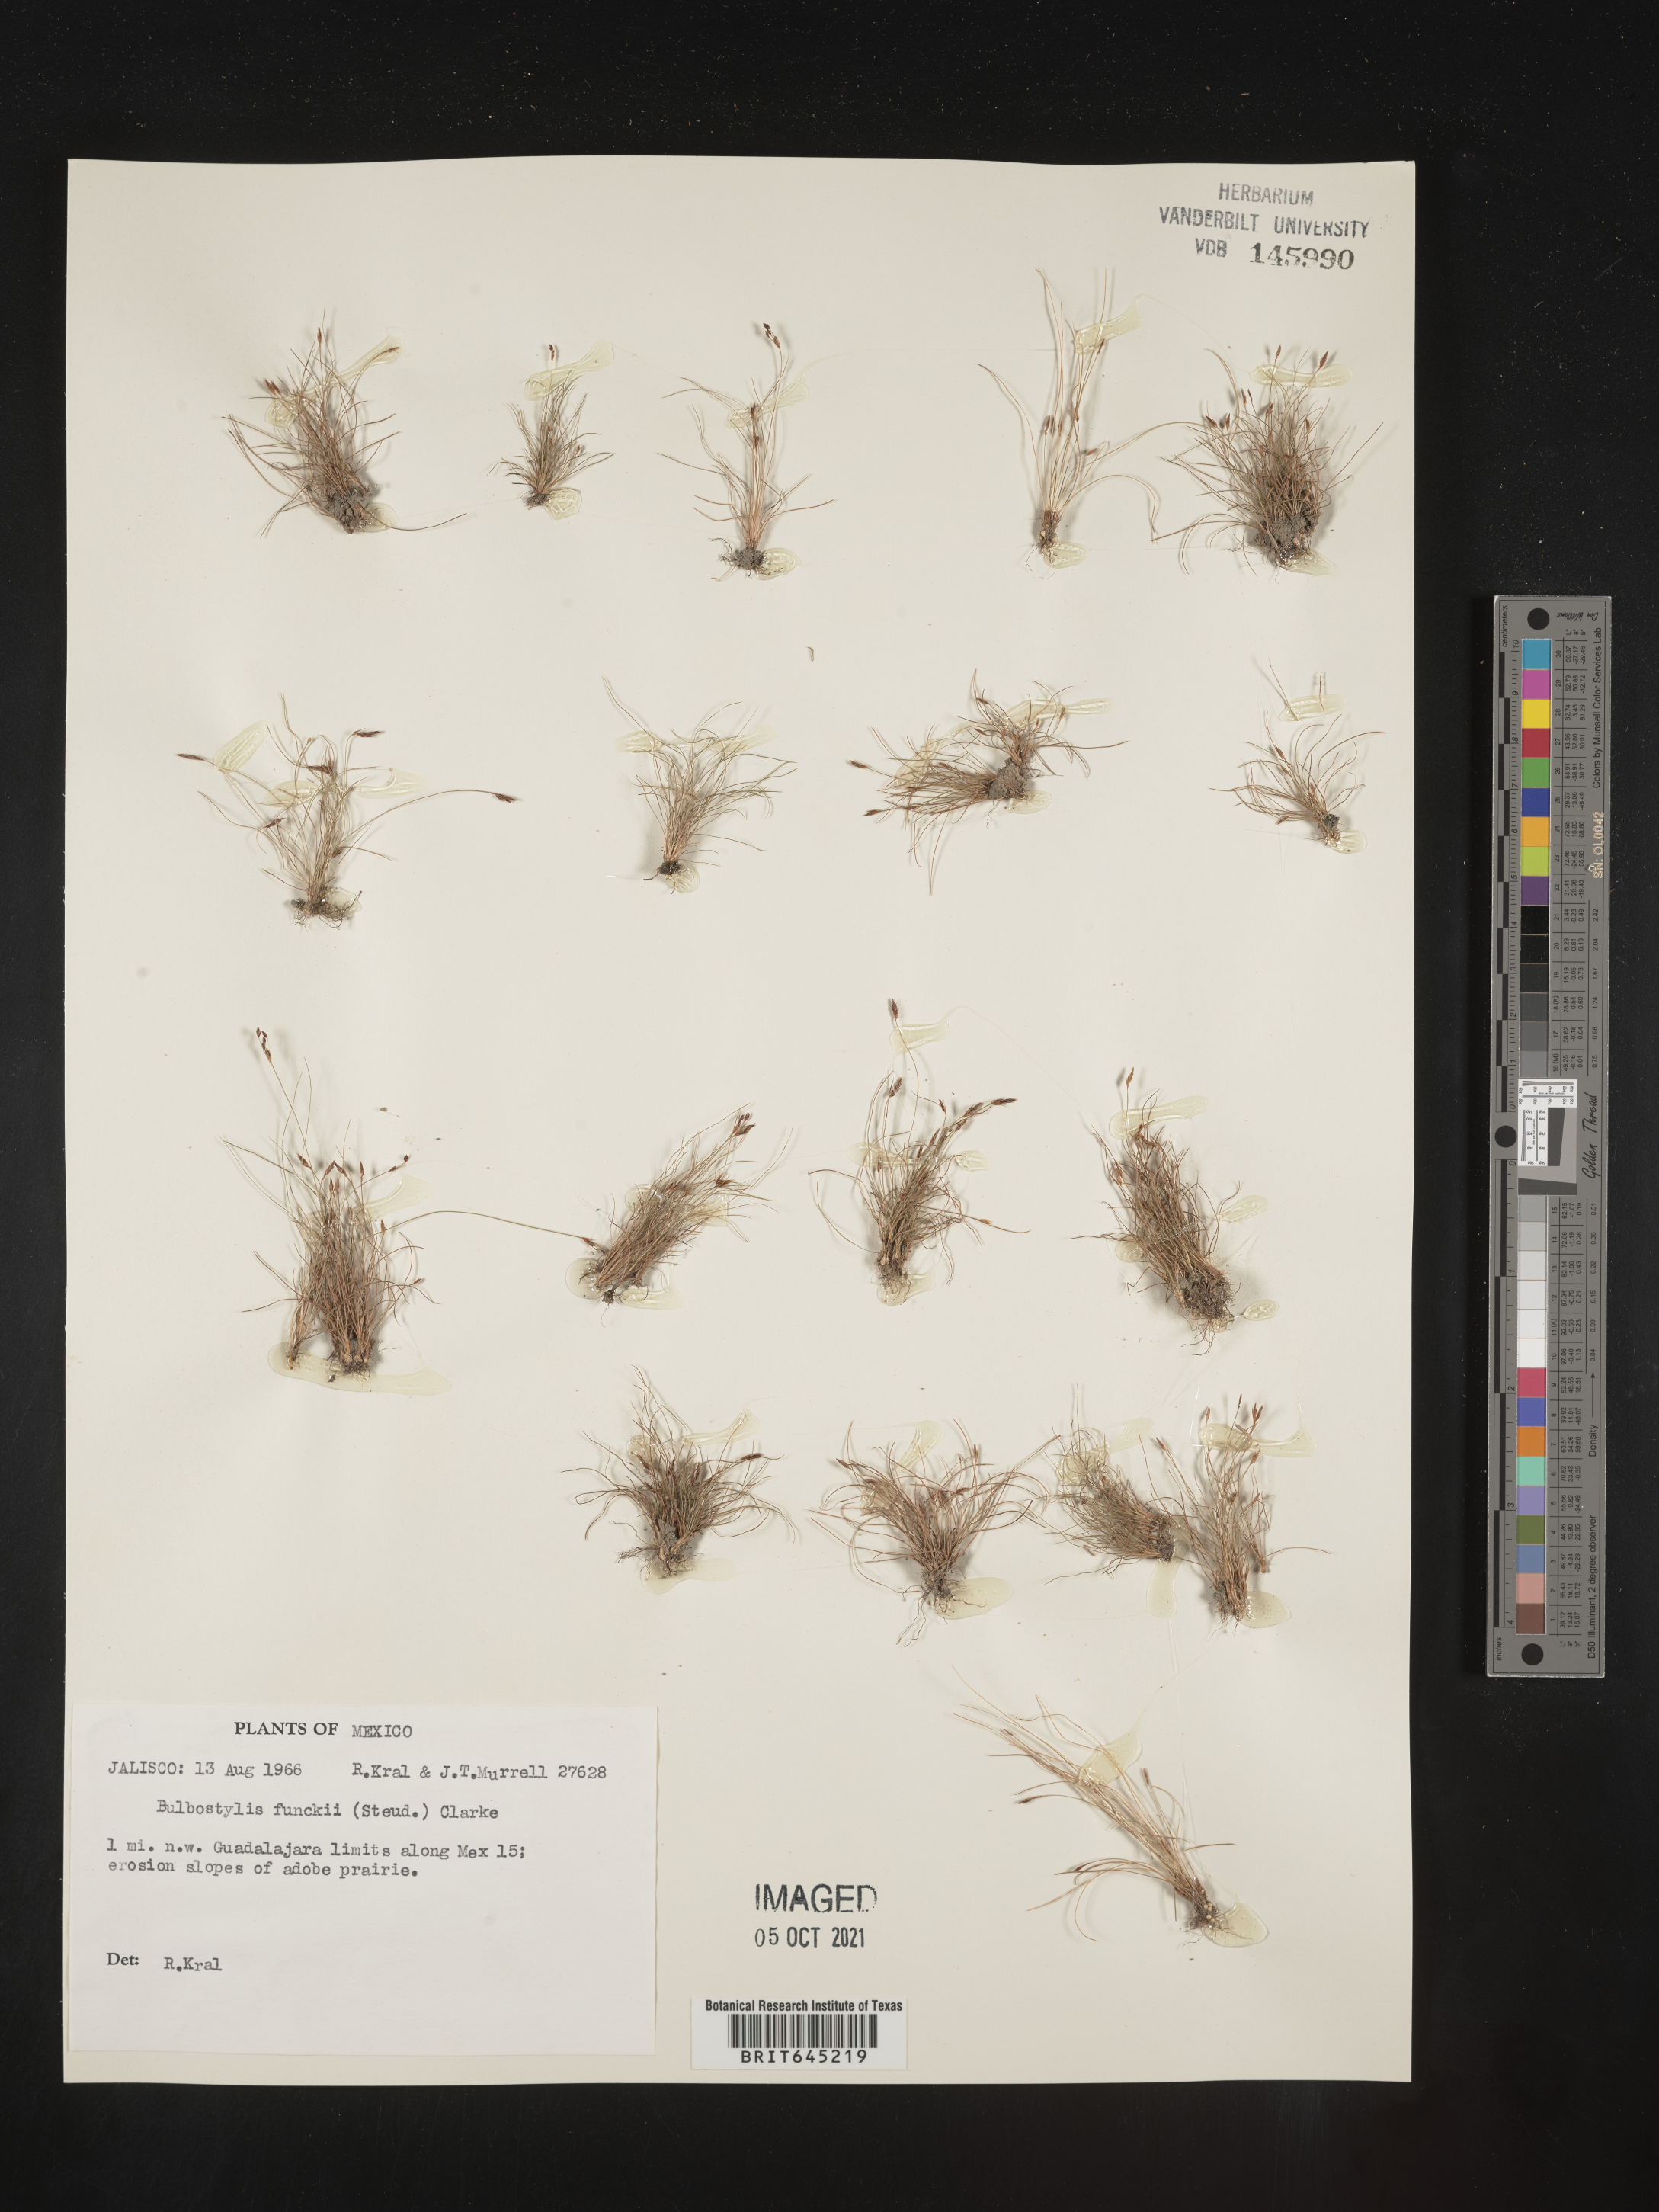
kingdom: Plantae
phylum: Tracheophyta
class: Liliopsida
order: Poales
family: Cyperaceae
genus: Bulbostylis
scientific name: Bulbostylis funckii
